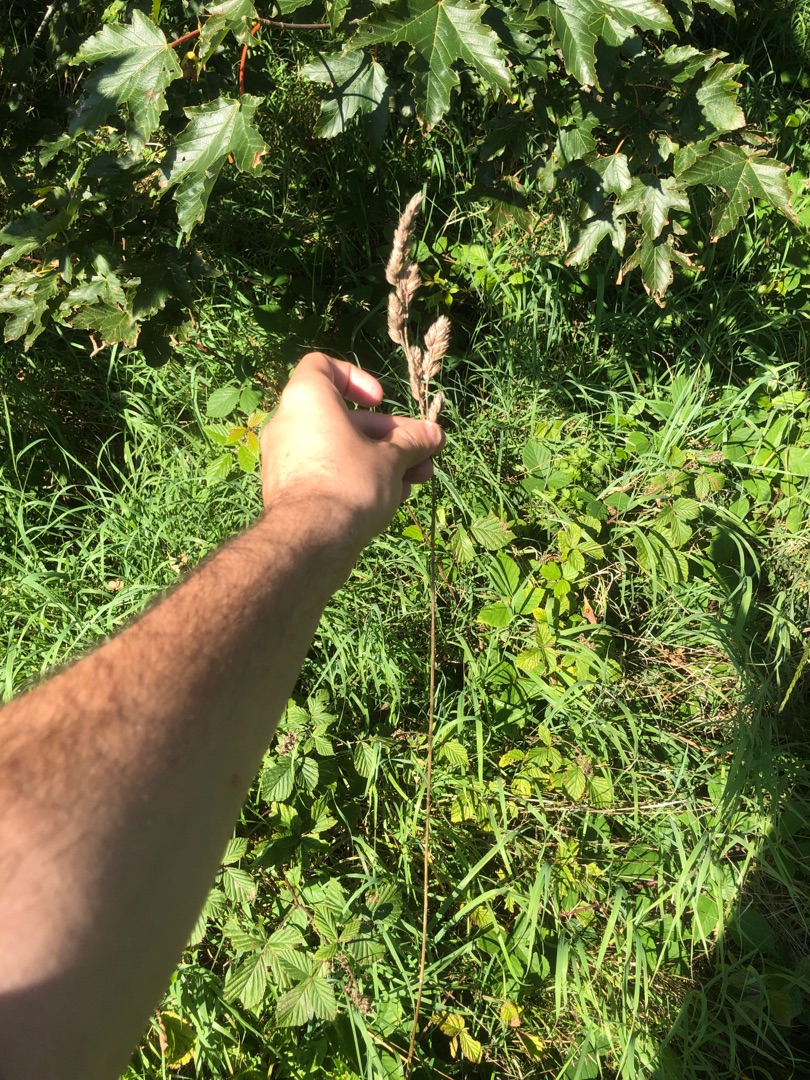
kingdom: Plantae
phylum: Tracheophyta
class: Liliopsida
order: Poales
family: Poaceae
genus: Dactylis
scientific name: Dactylis glomerata
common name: Almindelig hundegræs
